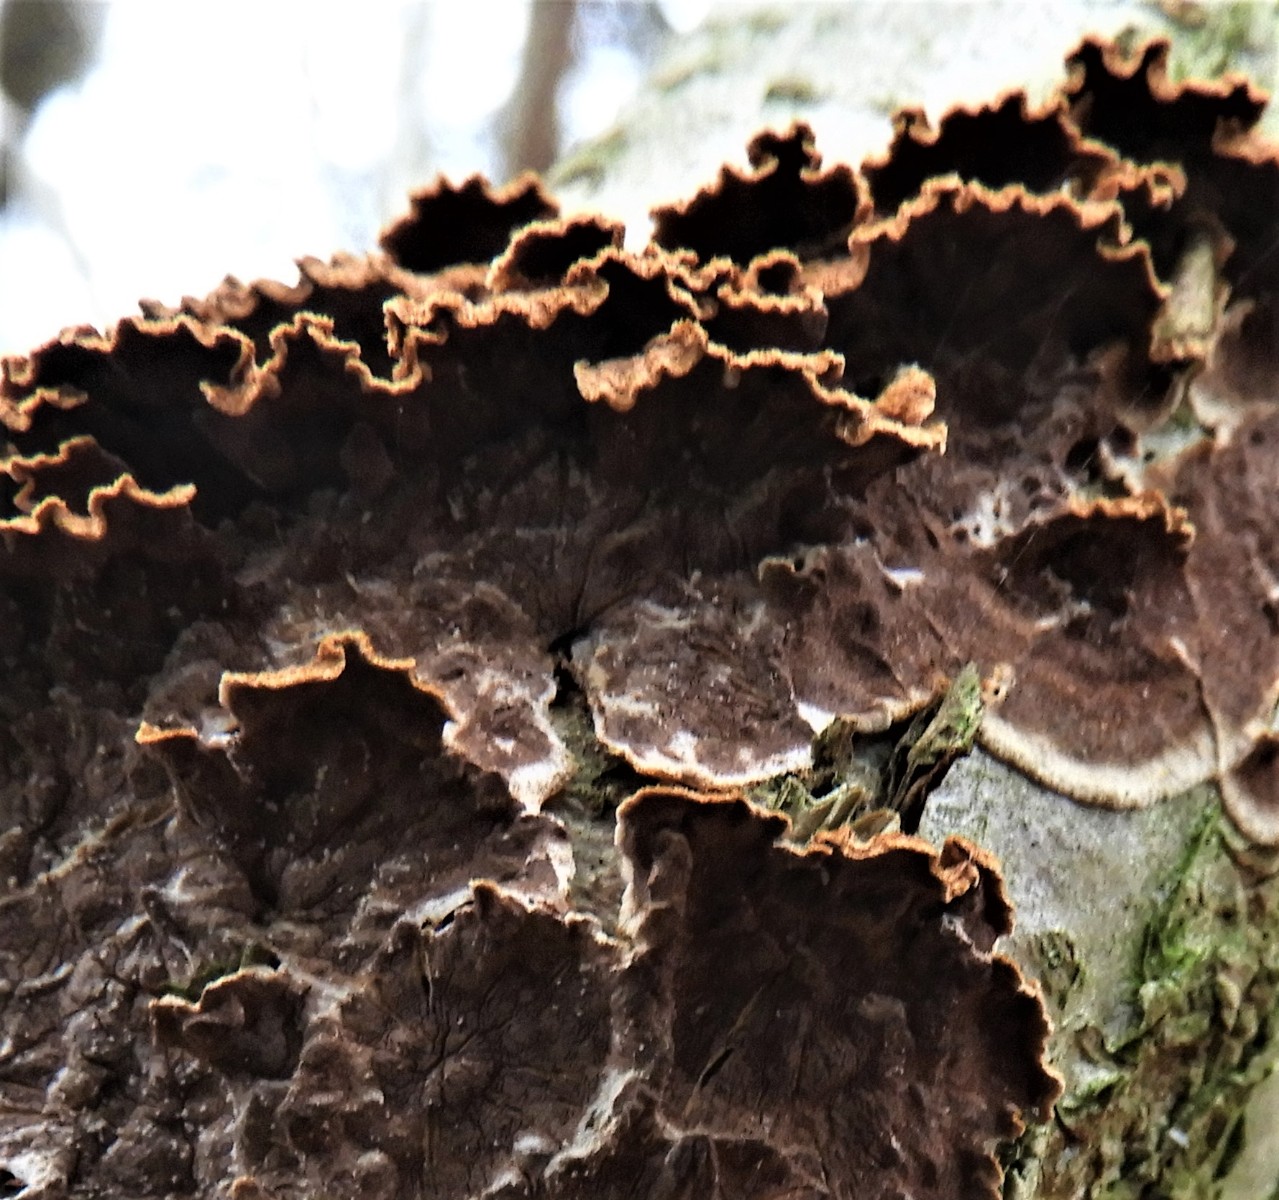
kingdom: Fungi
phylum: Basidiomycota
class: Agaricomycetes
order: Hymenochaetales
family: Hymenochaetaceae
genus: Hydnoporia
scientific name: Hydnoporia tabacina
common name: tobaksbrun ruslædersvamp
